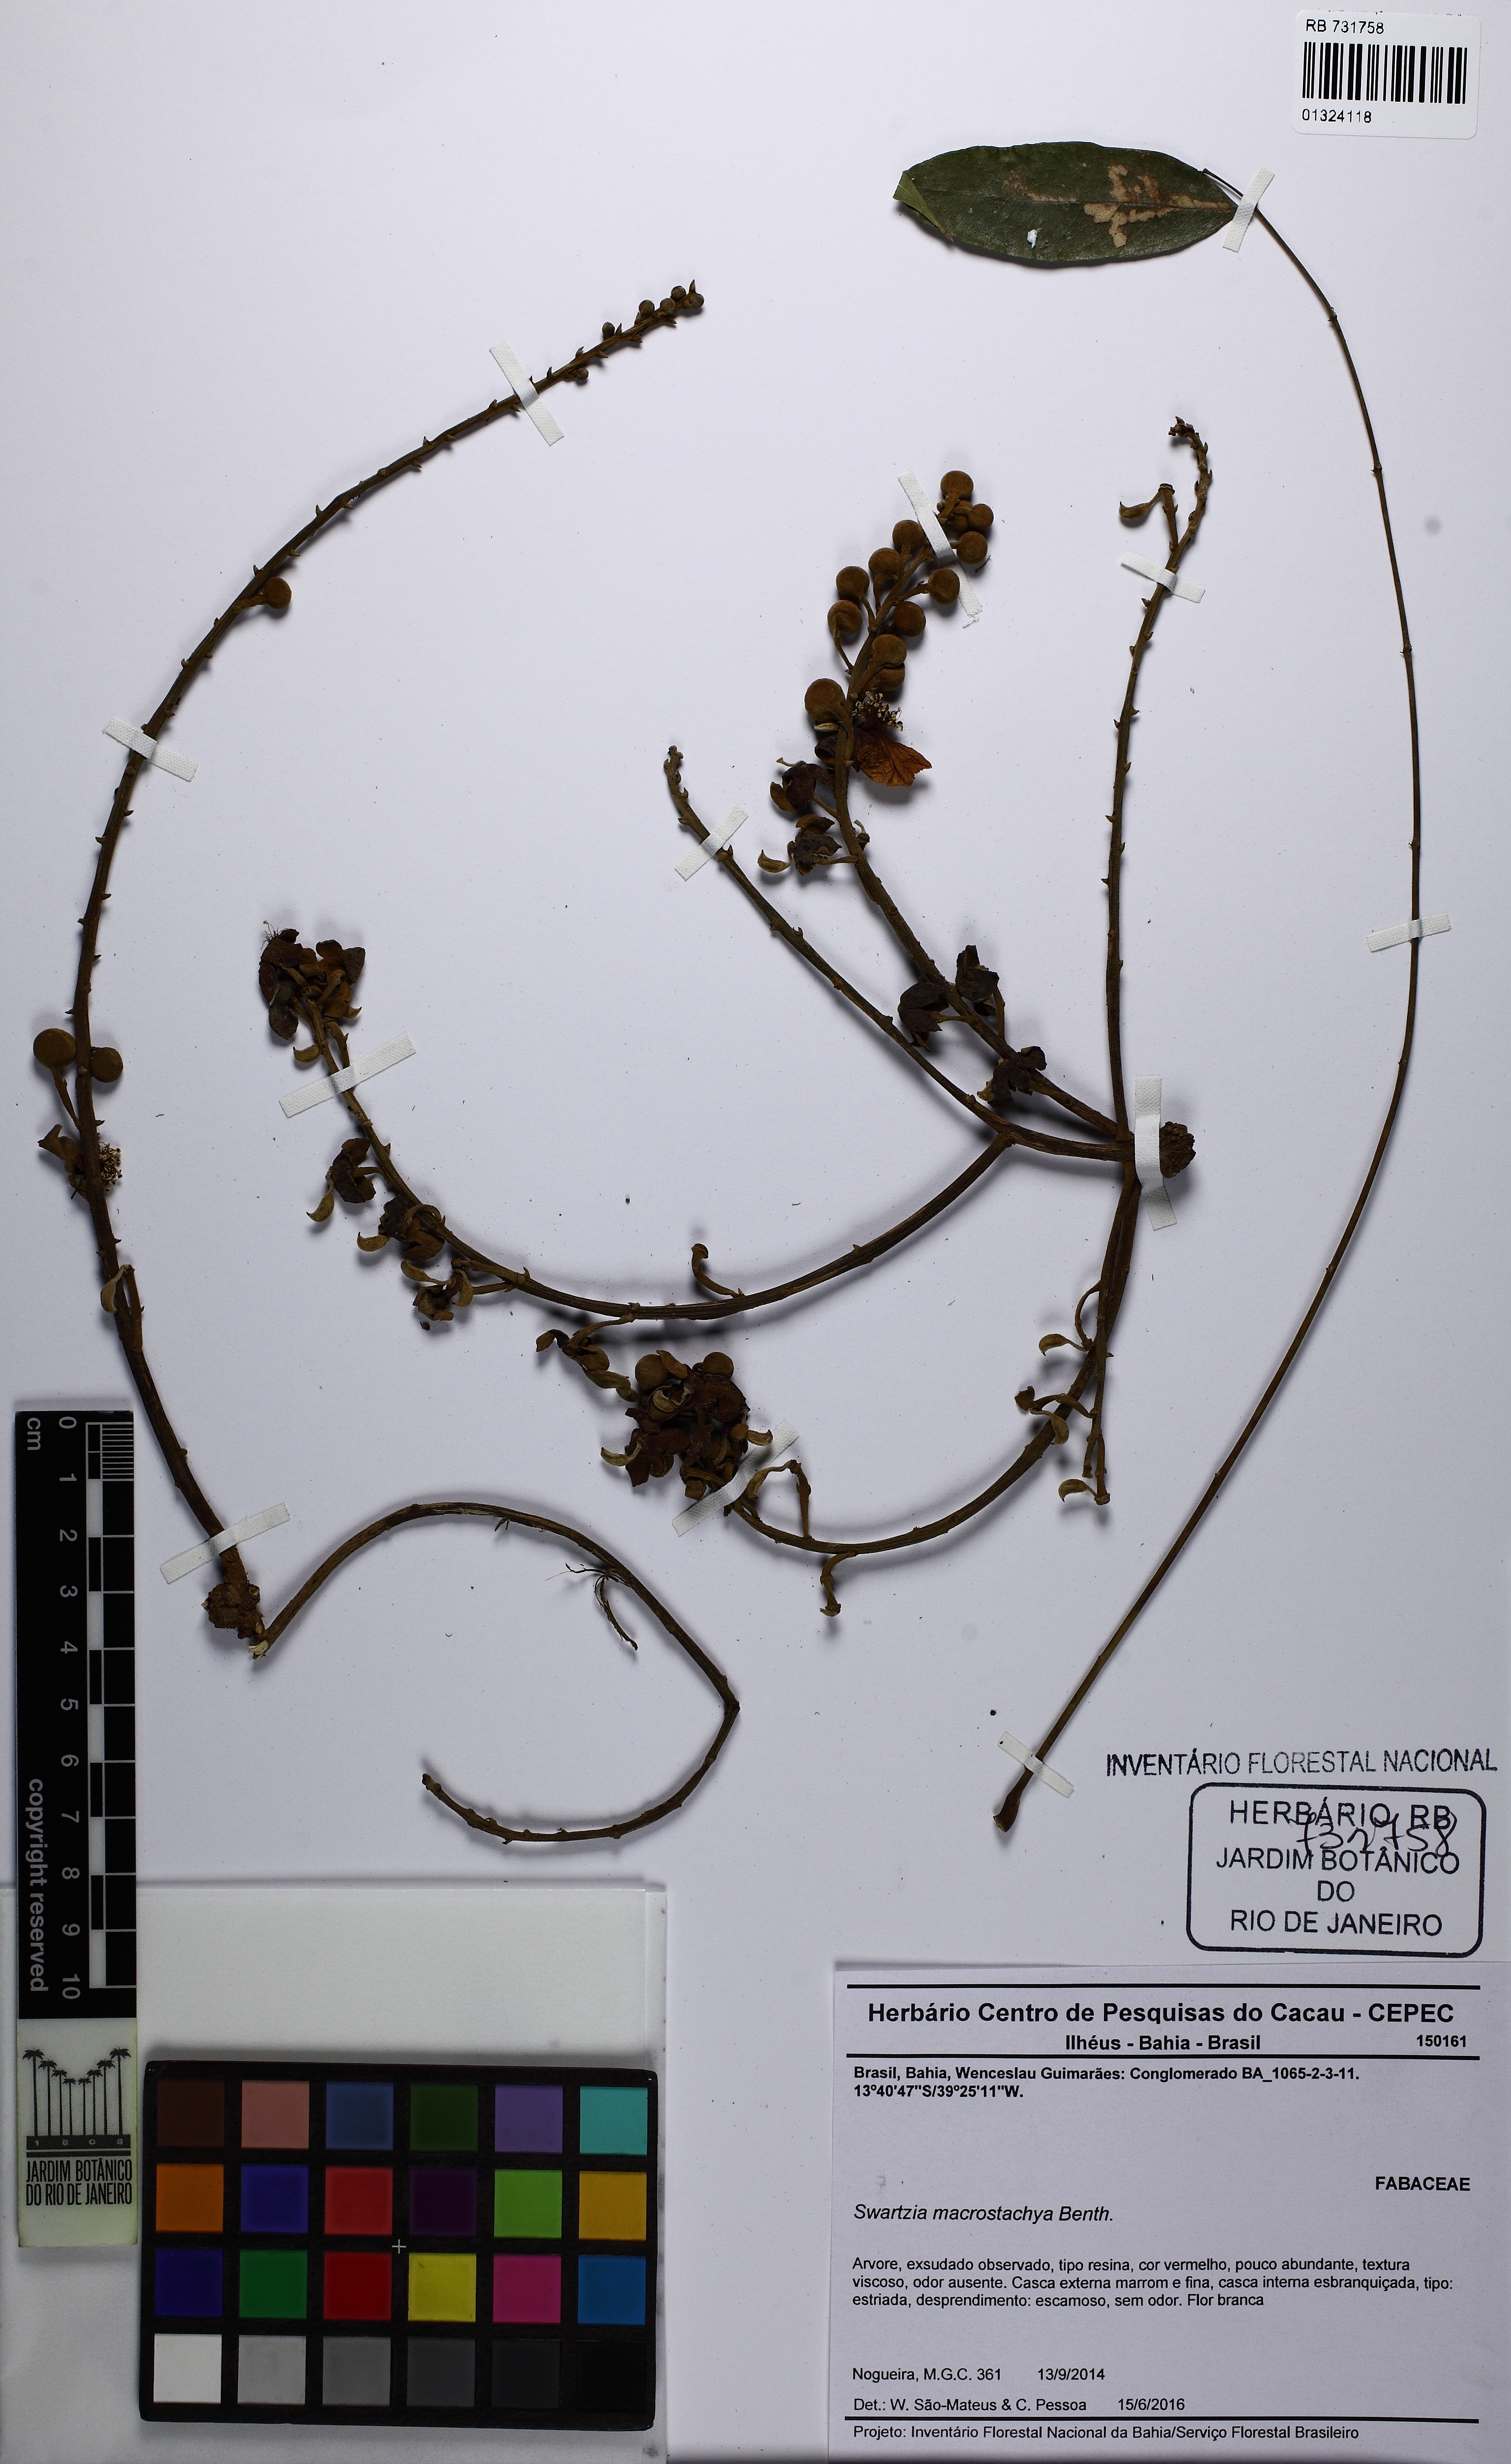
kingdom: Plantae
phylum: Tracheophyta
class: Magnoliopsida
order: Fabales
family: Fabaceae
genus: Swartzia
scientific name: Swartzia macrostachya
